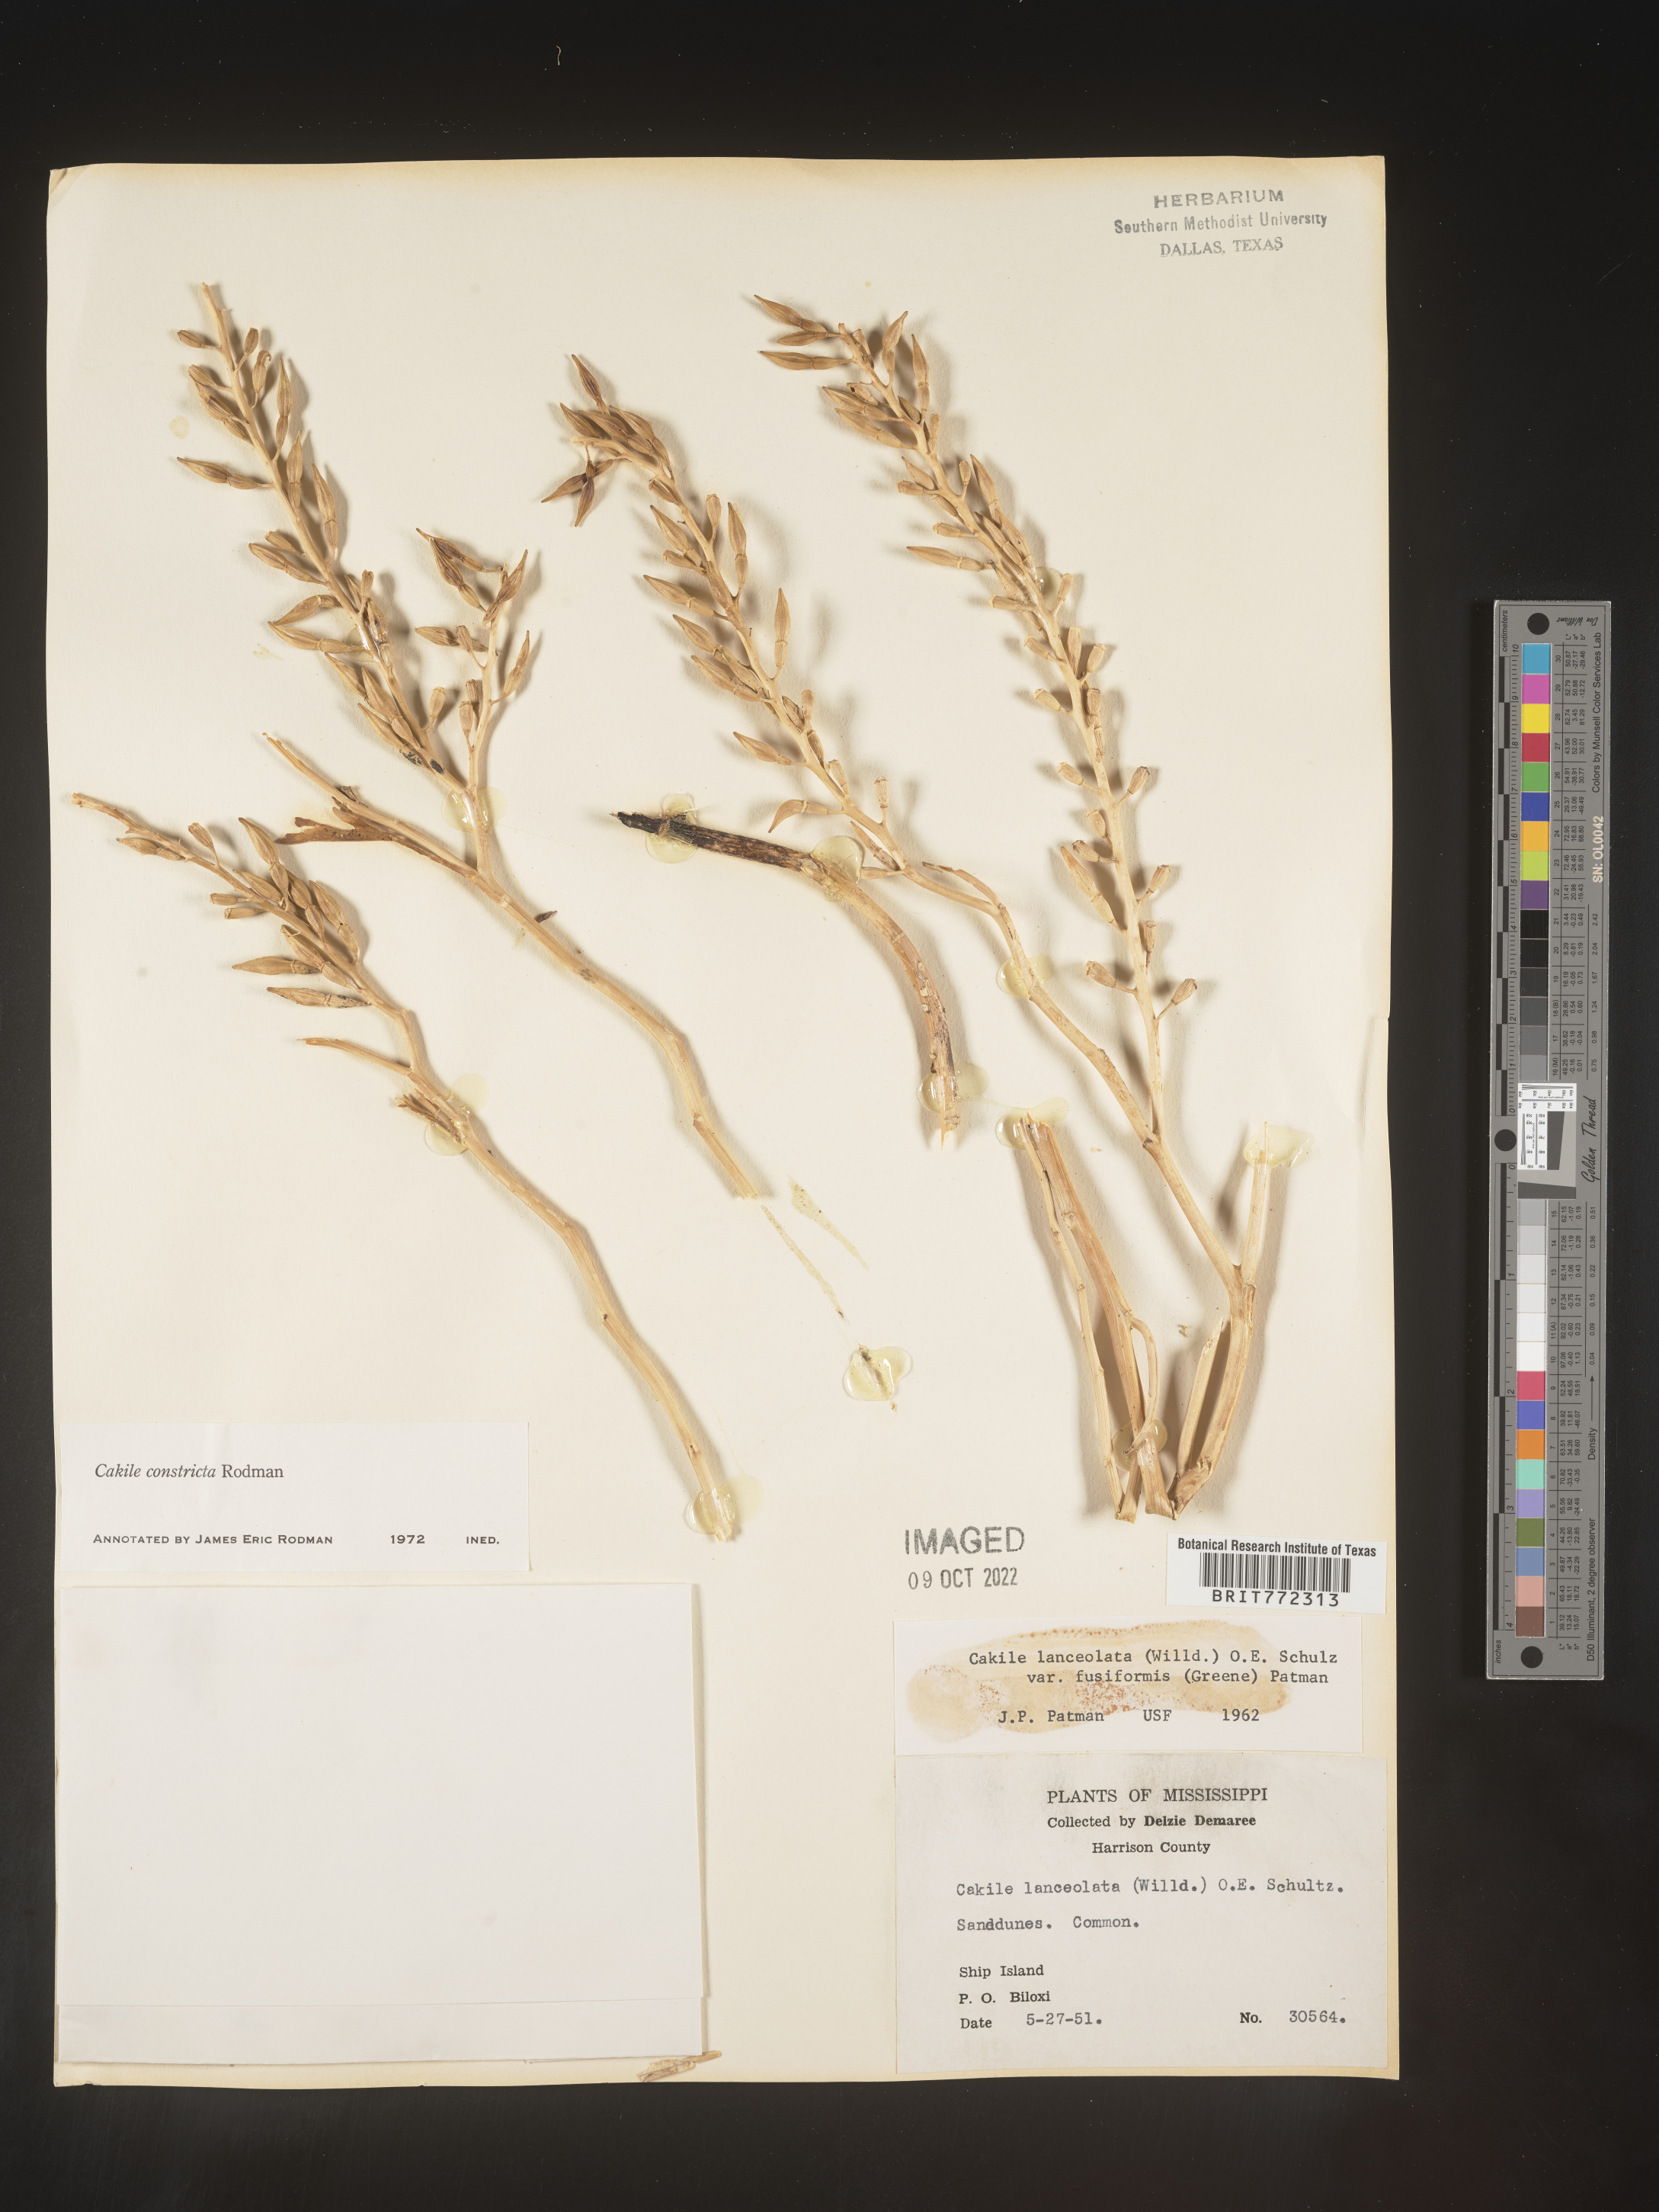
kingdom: Plantae
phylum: Tracheophyta
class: Magnoliopsida
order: Brassicales
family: Brassicaceae
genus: Cakile
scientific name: Cakile constricta
